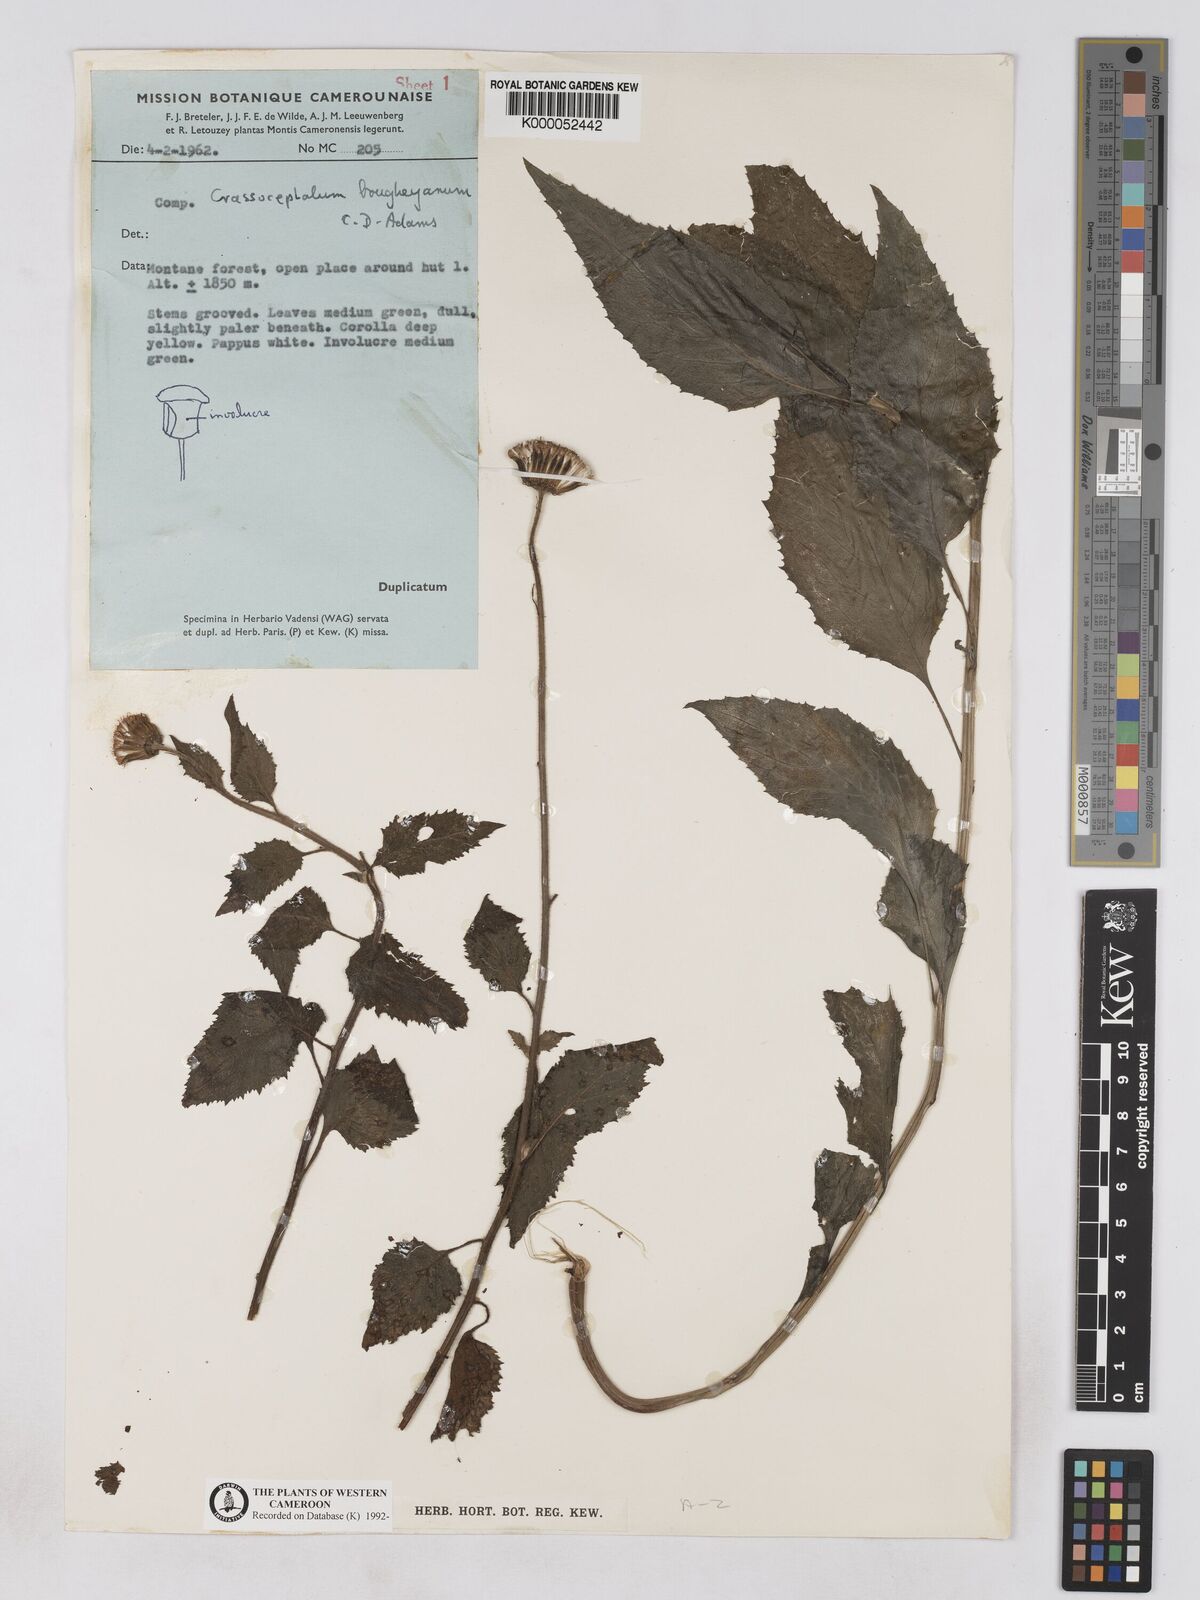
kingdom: Plantae
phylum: Tracheophyta
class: Magnoliopsida
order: Asterales
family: Asteraceae
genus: Crassocephalum
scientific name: Crassocephalum bougheyanum
